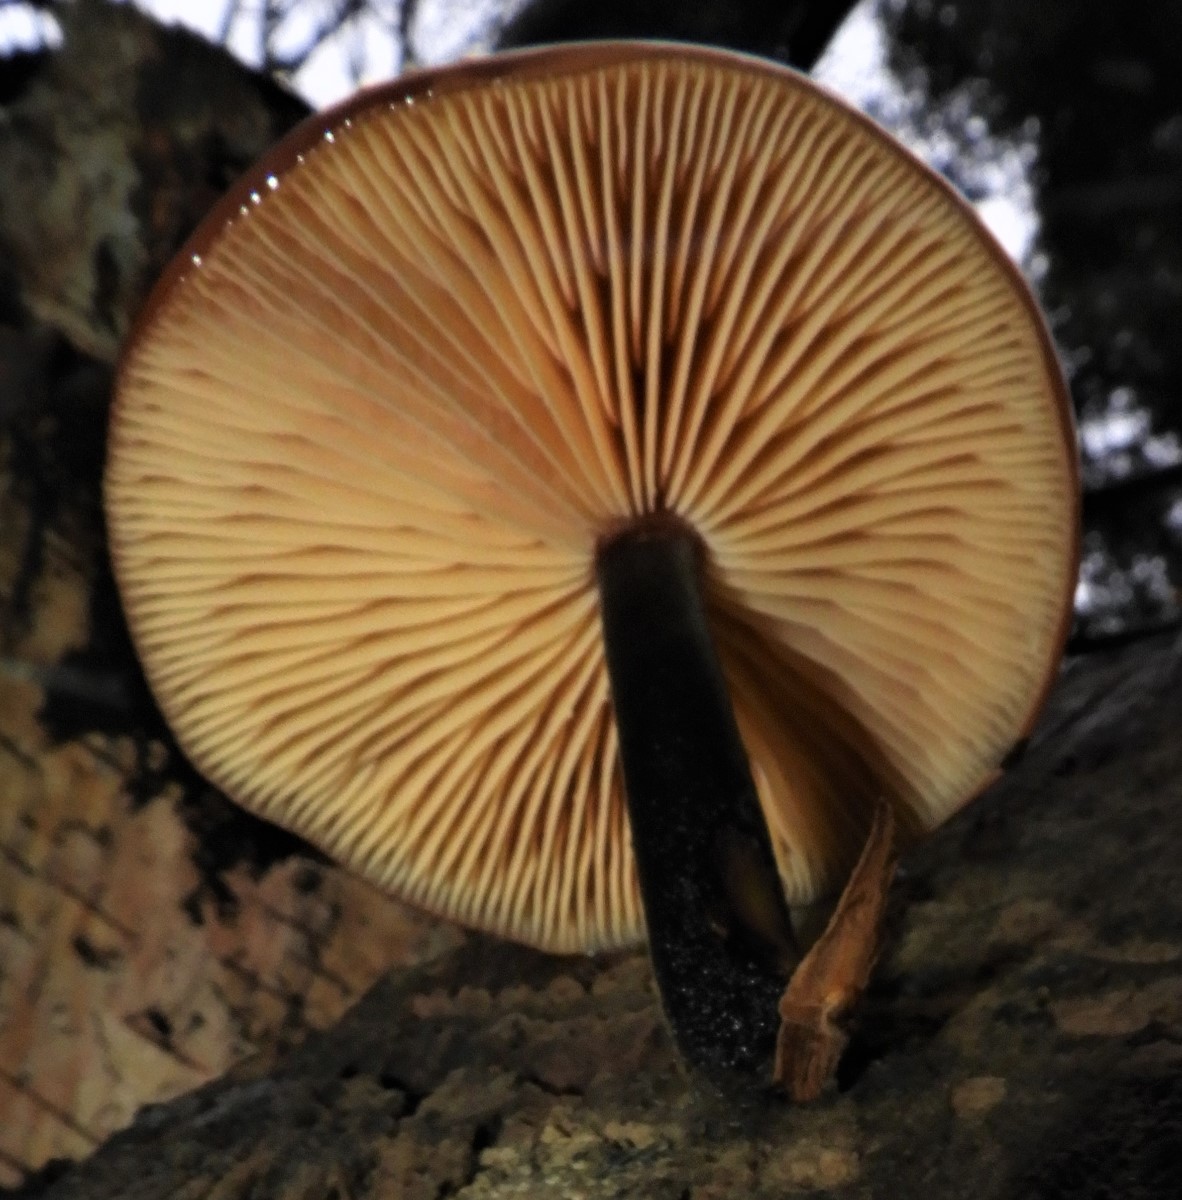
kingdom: Fungi
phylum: Basidiomycota
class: Agaricomycetes
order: Agaricales
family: Physalacriaceae
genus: Flammulina
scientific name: Flammulina velutipes
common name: gul fløjlsfod
